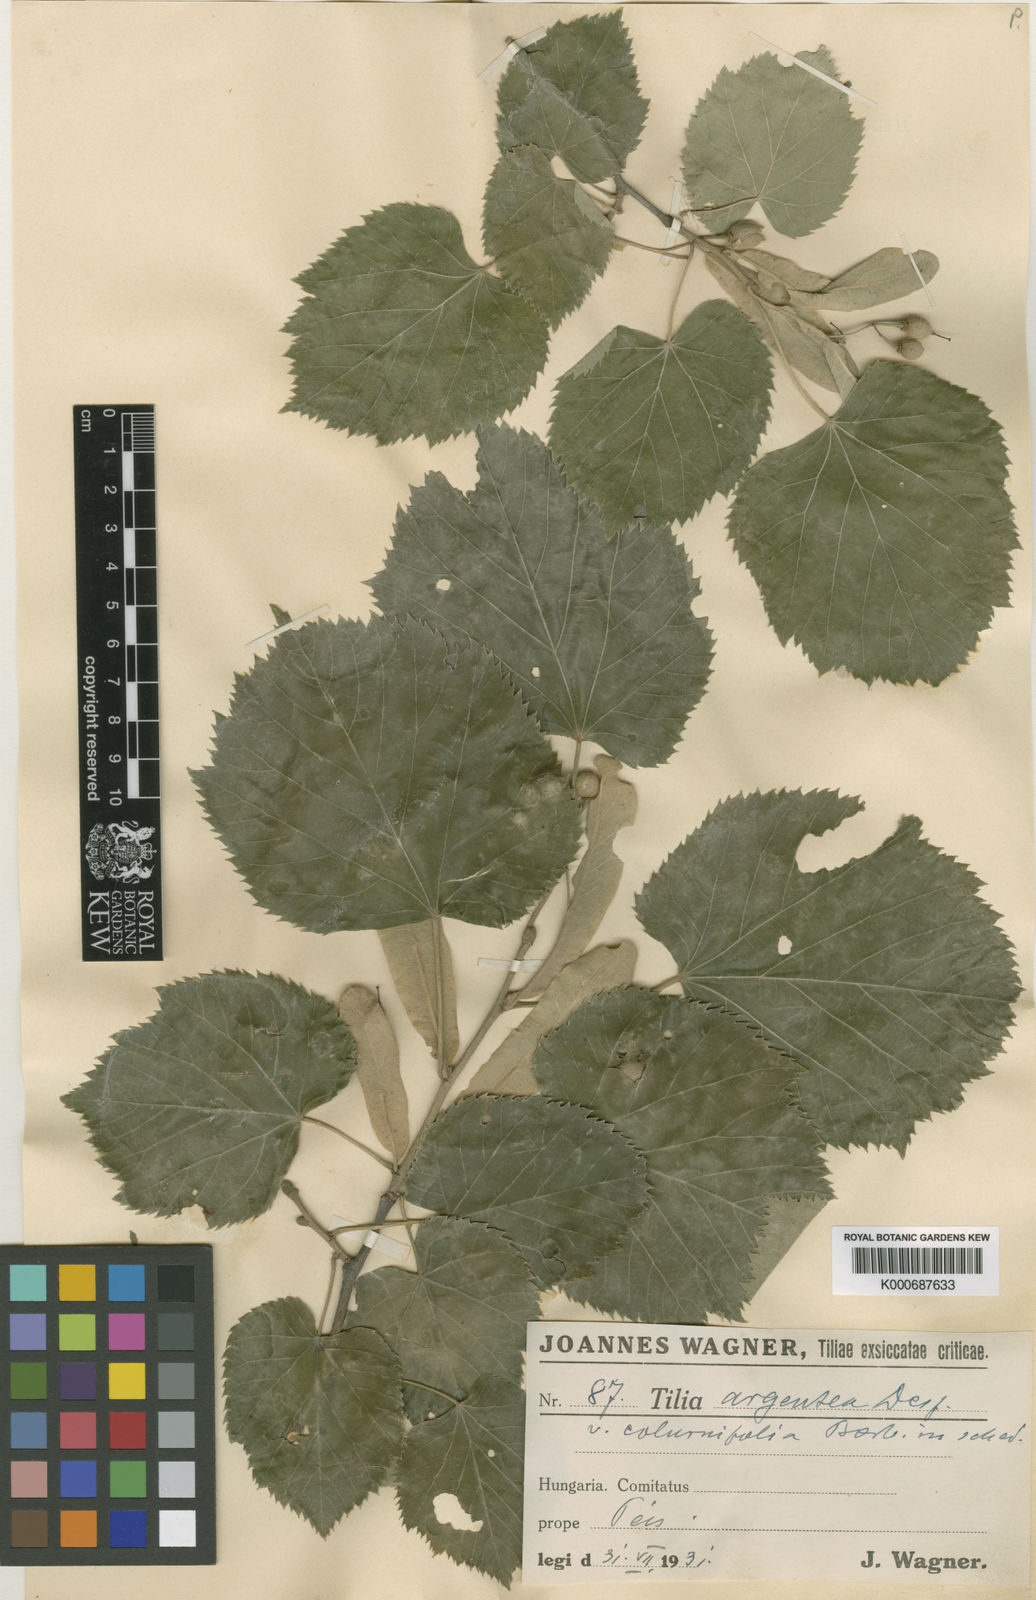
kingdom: Plantae
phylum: Tracheophyta
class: Magnoliopsida
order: Malvales
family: Malvaceae
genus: Tilia
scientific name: Tilia tomentosa
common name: Silver lime
